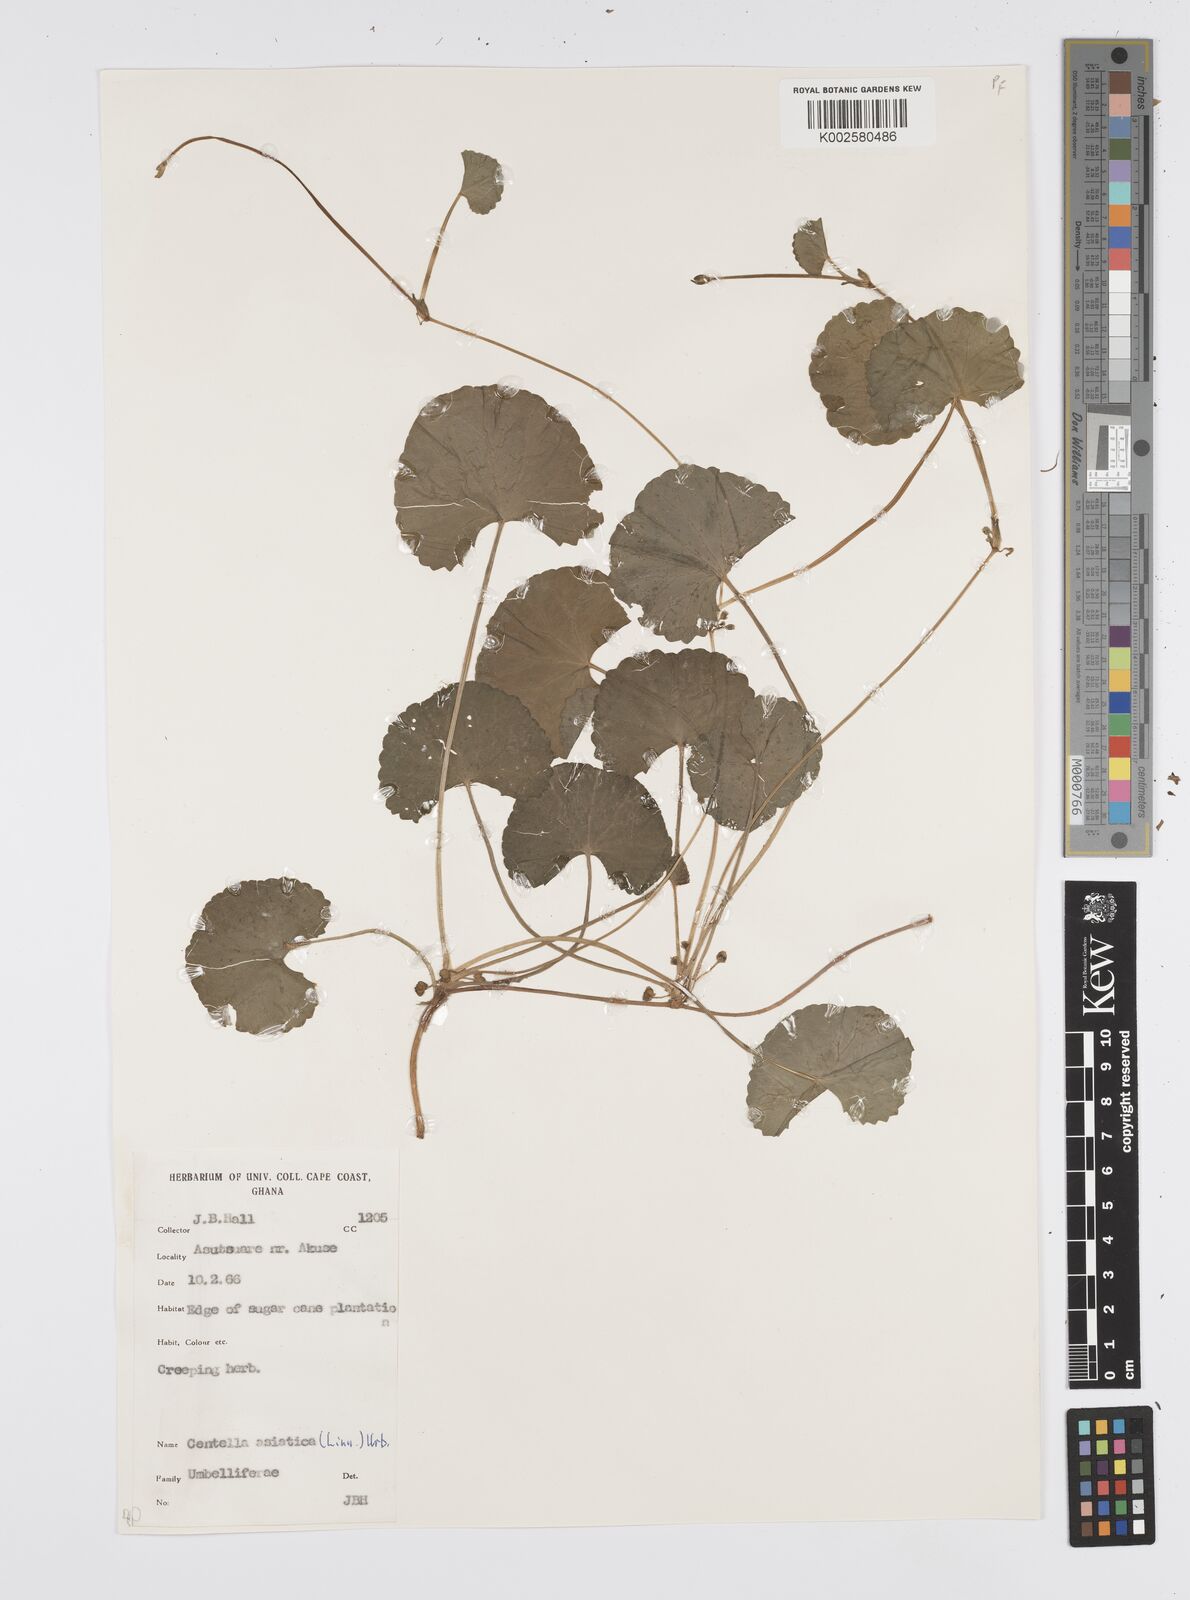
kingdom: Plantae
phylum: Tracheophyta
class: Magnoliopsida
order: Apiales
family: Apiaceae
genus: Centella
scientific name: Centella asiatica
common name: Spadeleaf
